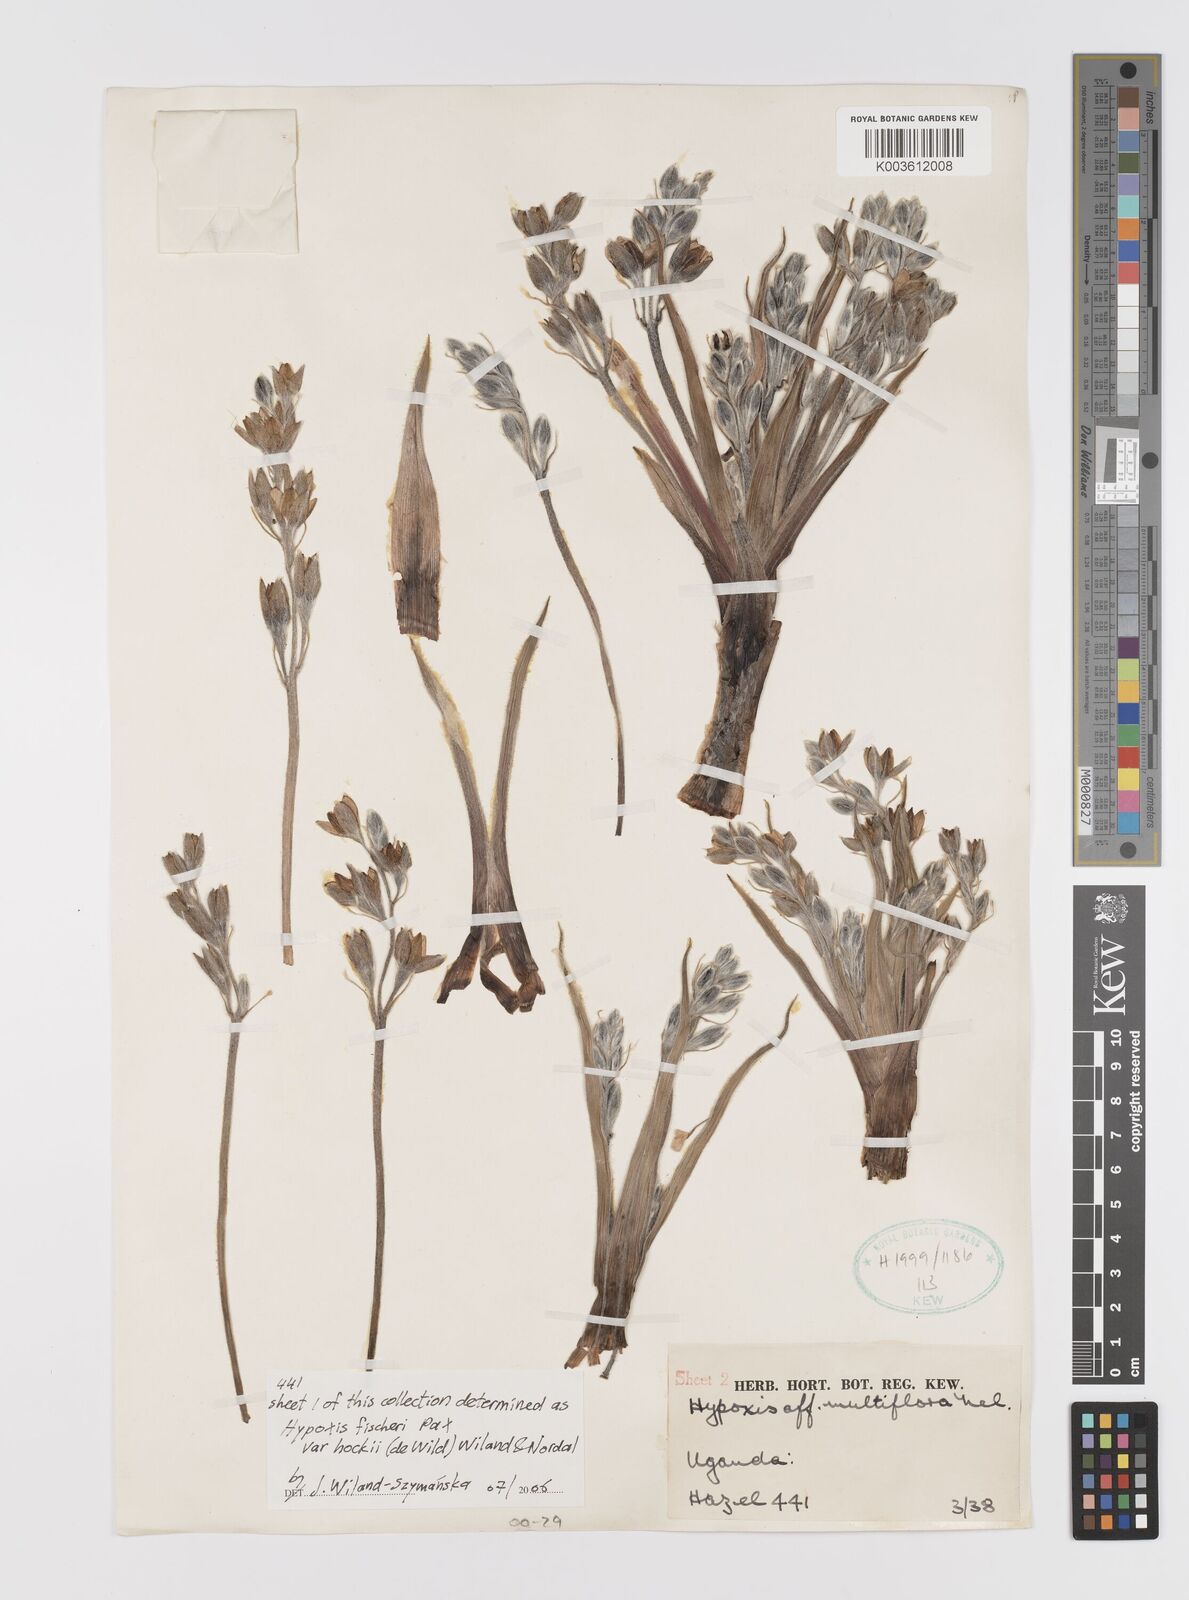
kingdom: Plantae
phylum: Tracheophyta
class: Liliopsida
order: Asparagales
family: Hypoxidaceae
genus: Hypoxis
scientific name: Hypoxis fischeri
